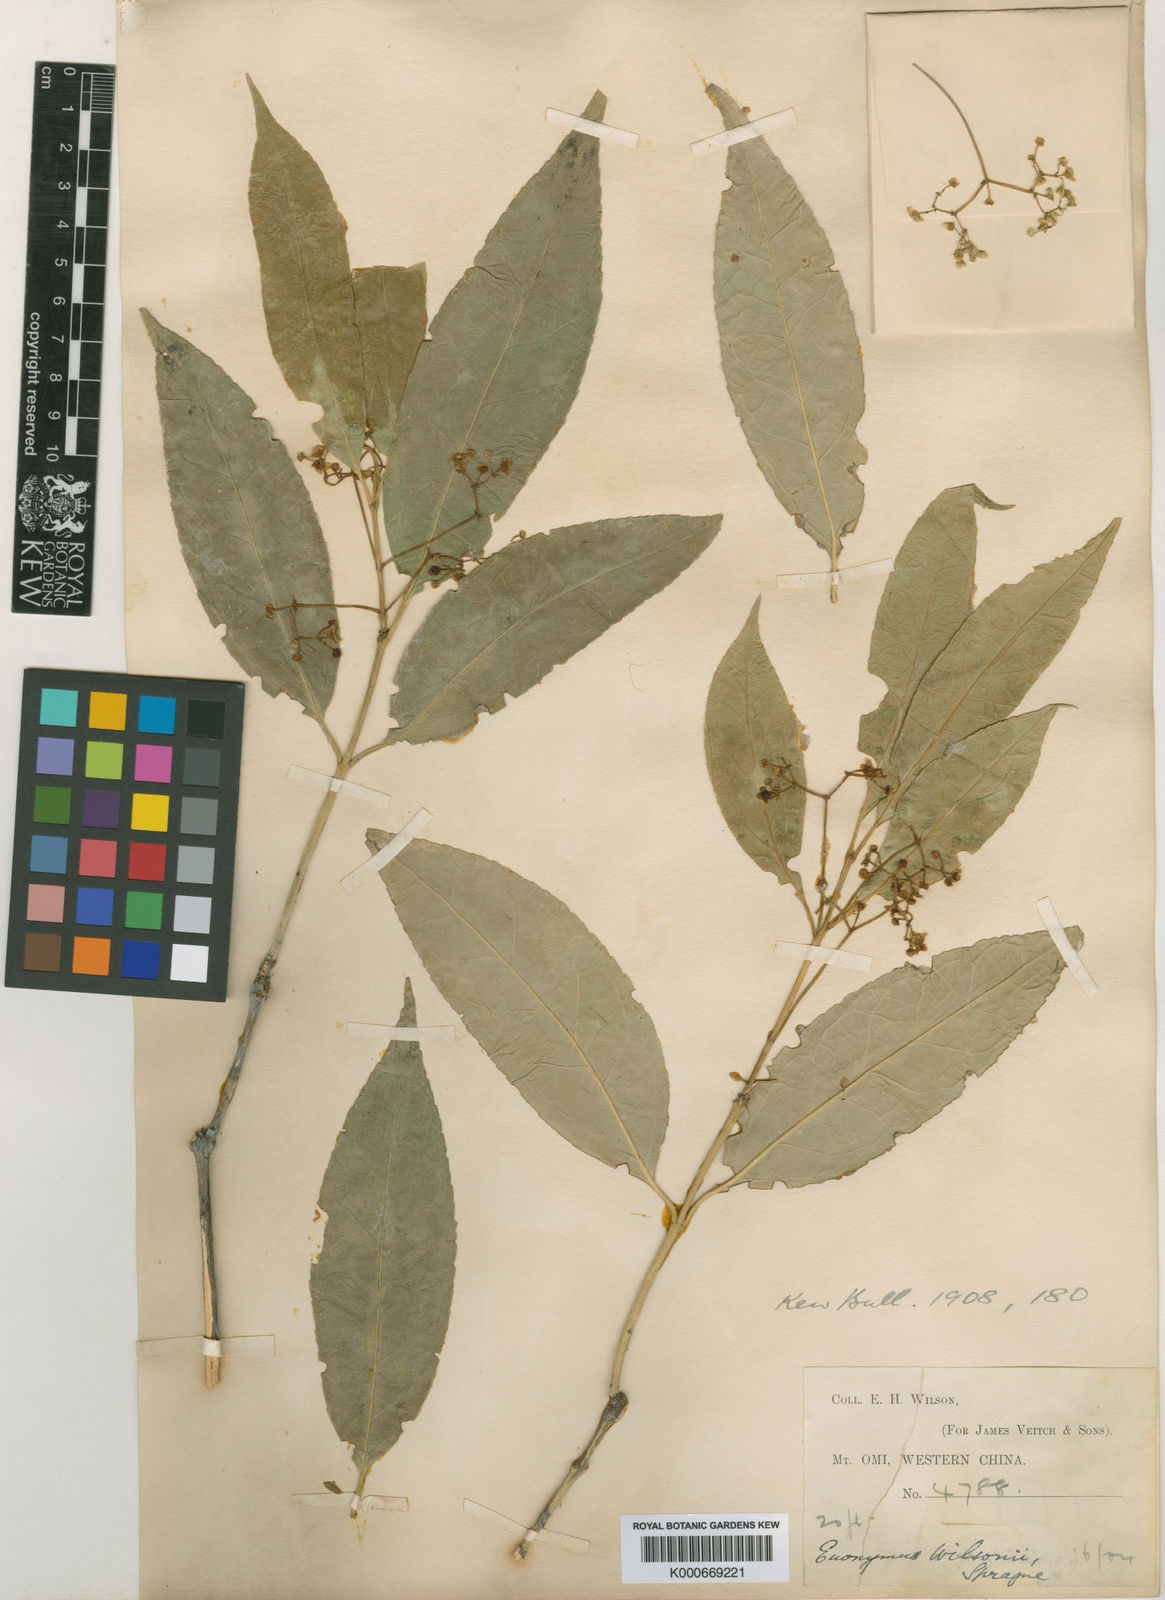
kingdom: Plantae
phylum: Tracheophyta
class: Magnoliopsida
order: Celastrales
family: Celastraceae
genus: Euonymus
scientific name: Euonymus wilsonii
